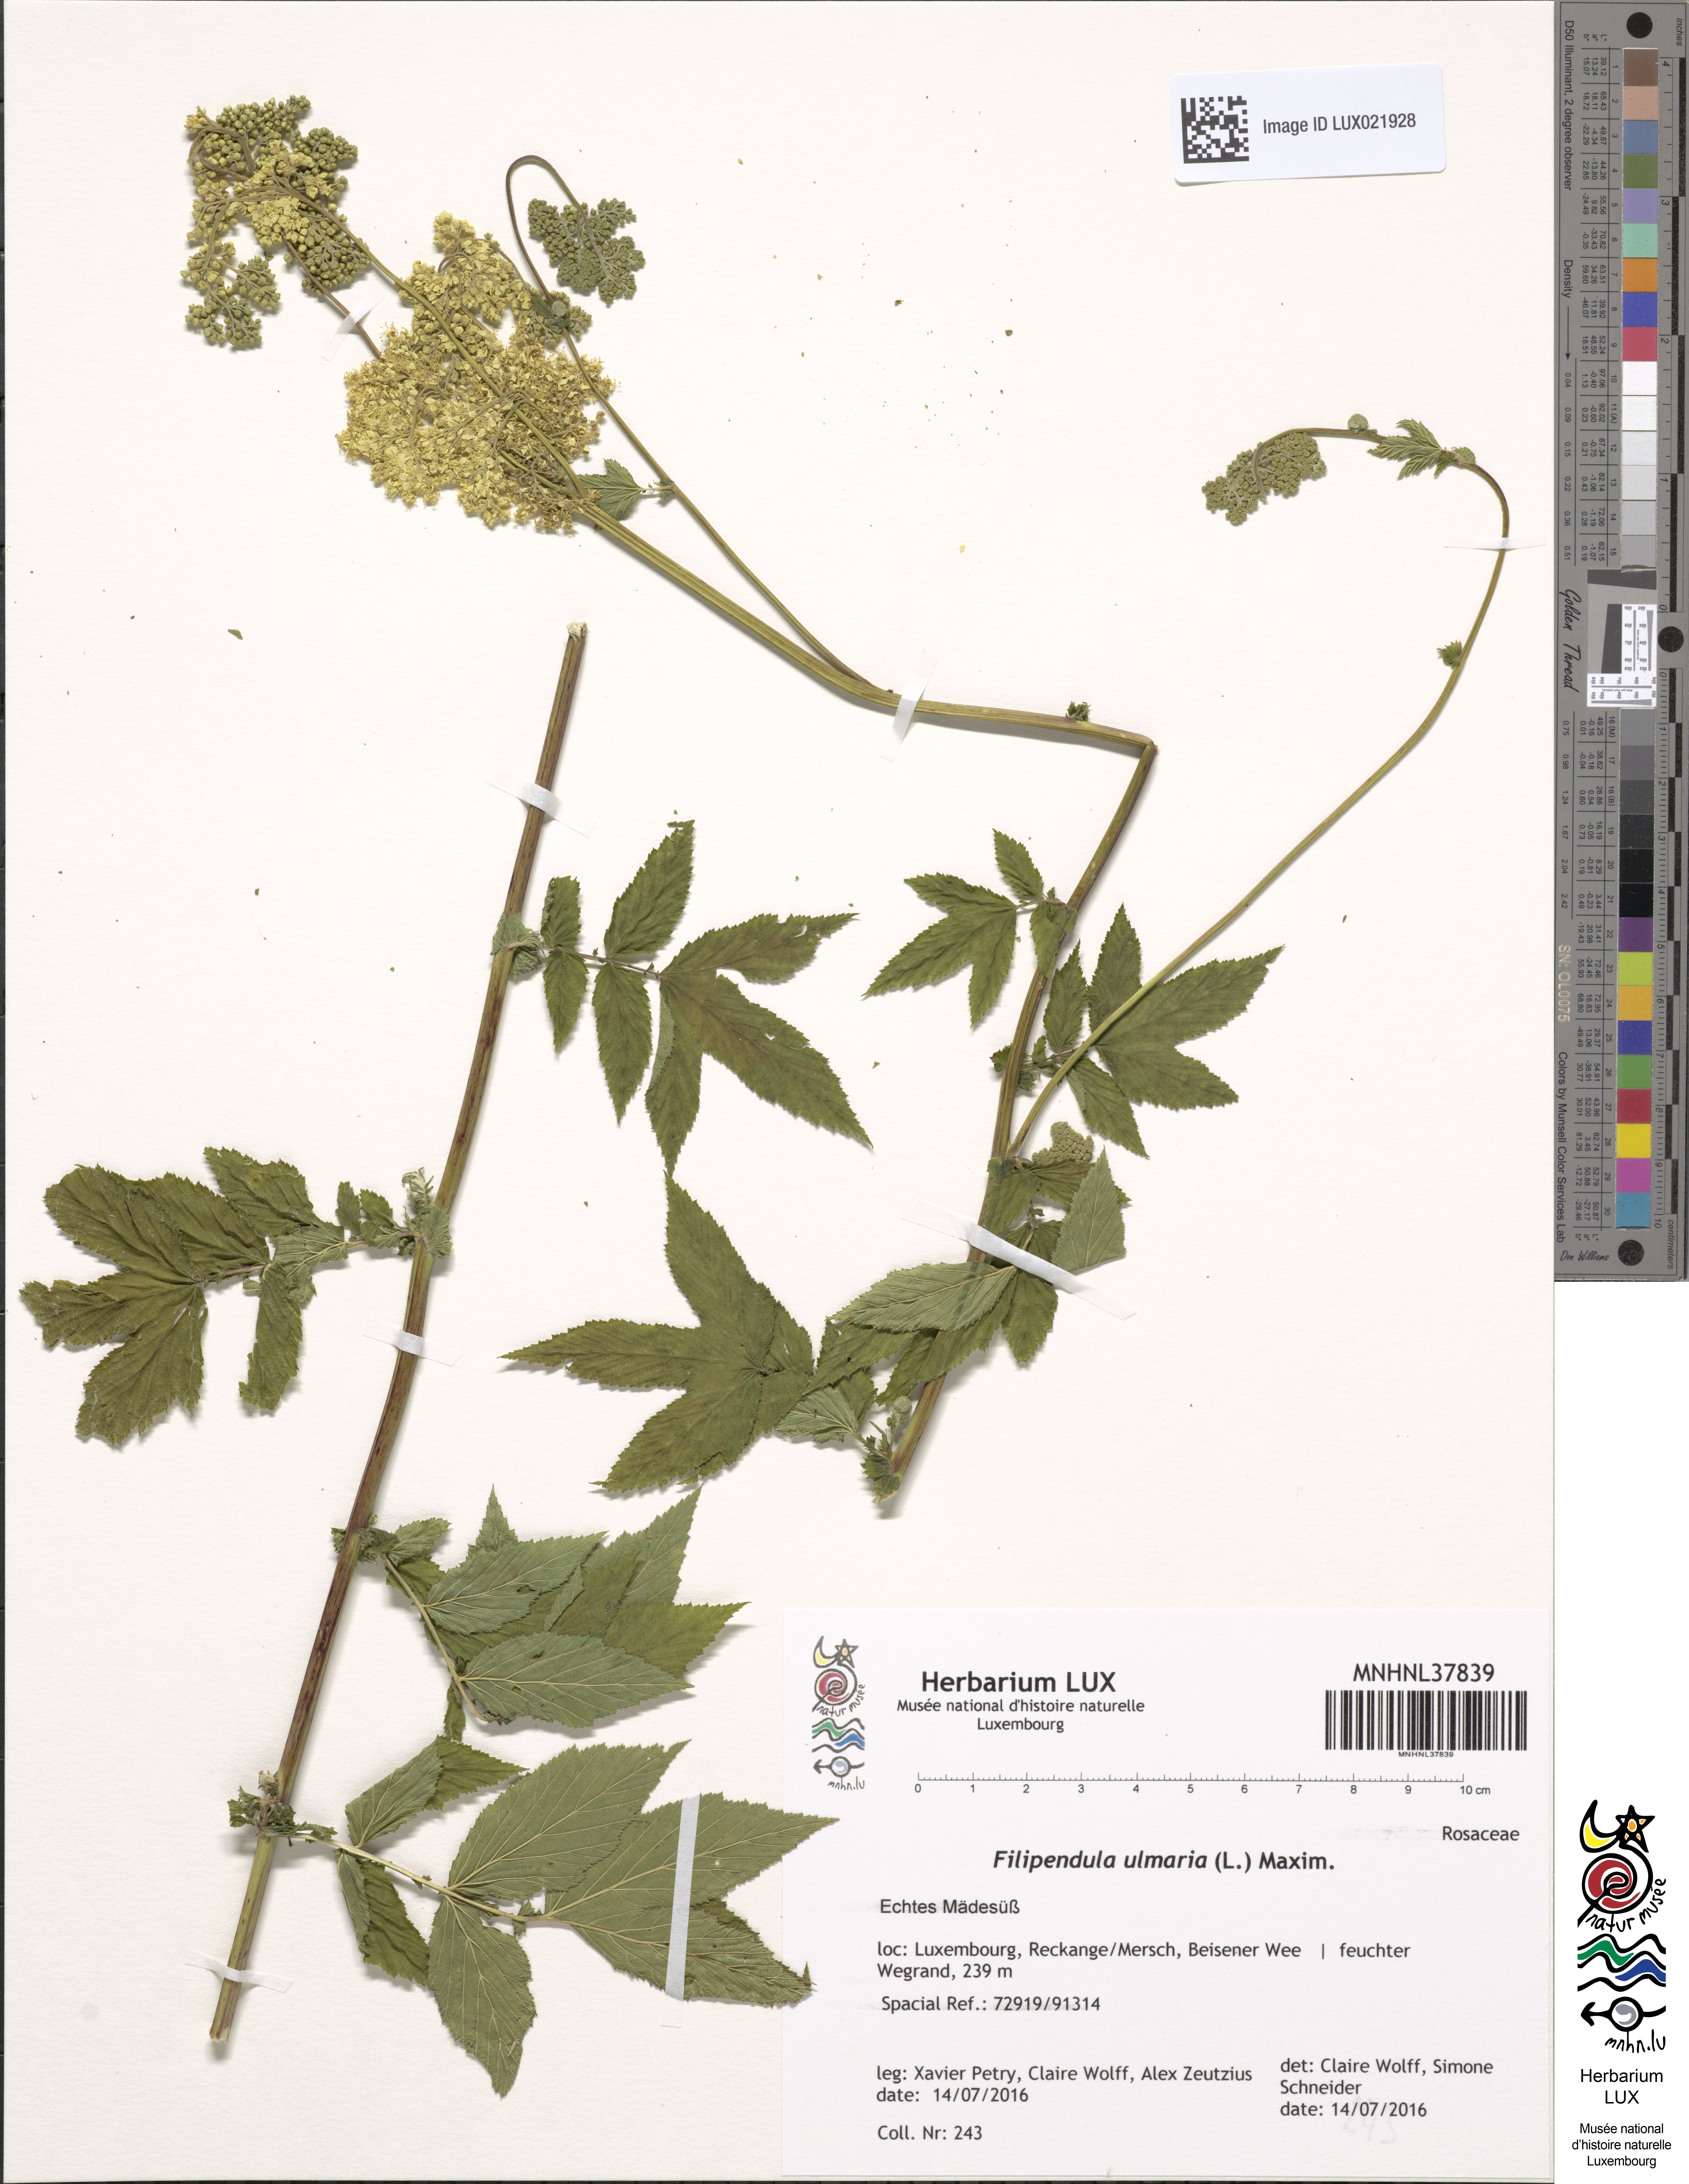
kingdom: Plantae
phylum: Tracheophyta
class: Magnoliopsida
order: Rosales
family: Rosaceae
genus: Filipendula
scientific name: Filipendula ulmaria
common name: Meadowsweet
